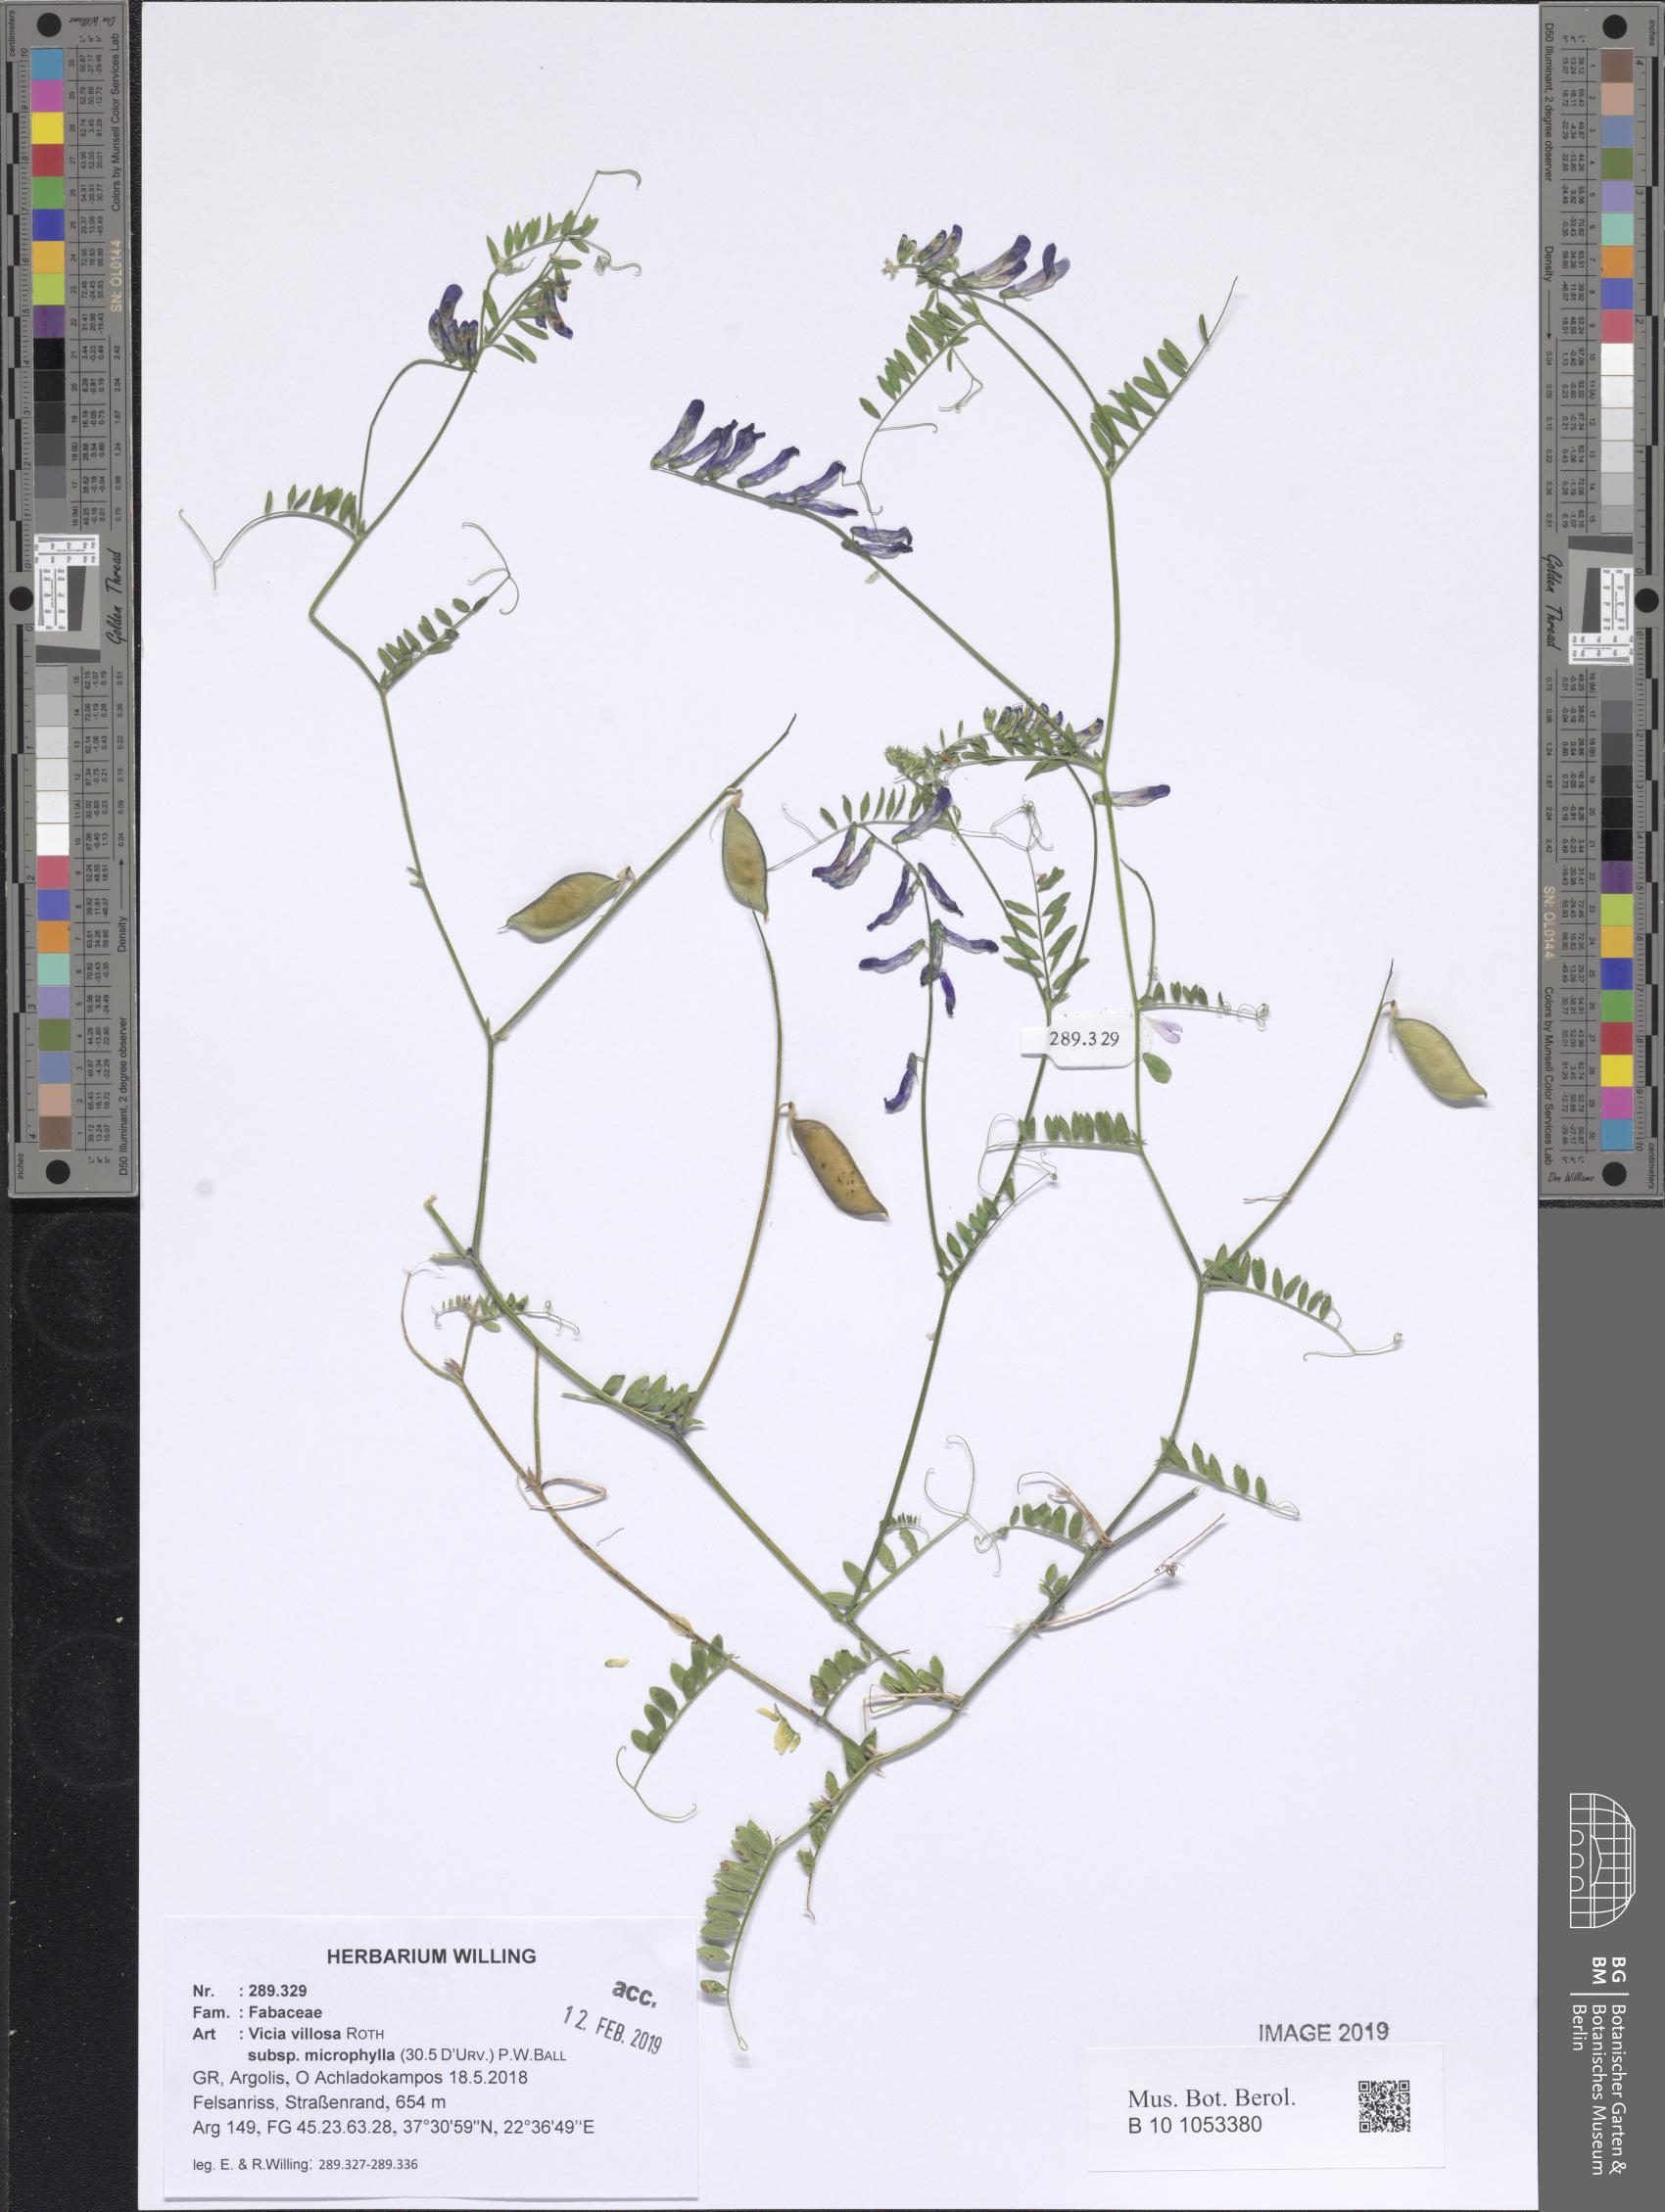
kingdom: Plantae
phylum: Tracheophyta
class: Magnoliopsida
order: Fabales
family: Fabaceae
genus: Vicia
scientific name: Vicia villosa
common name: Fodder vetch
